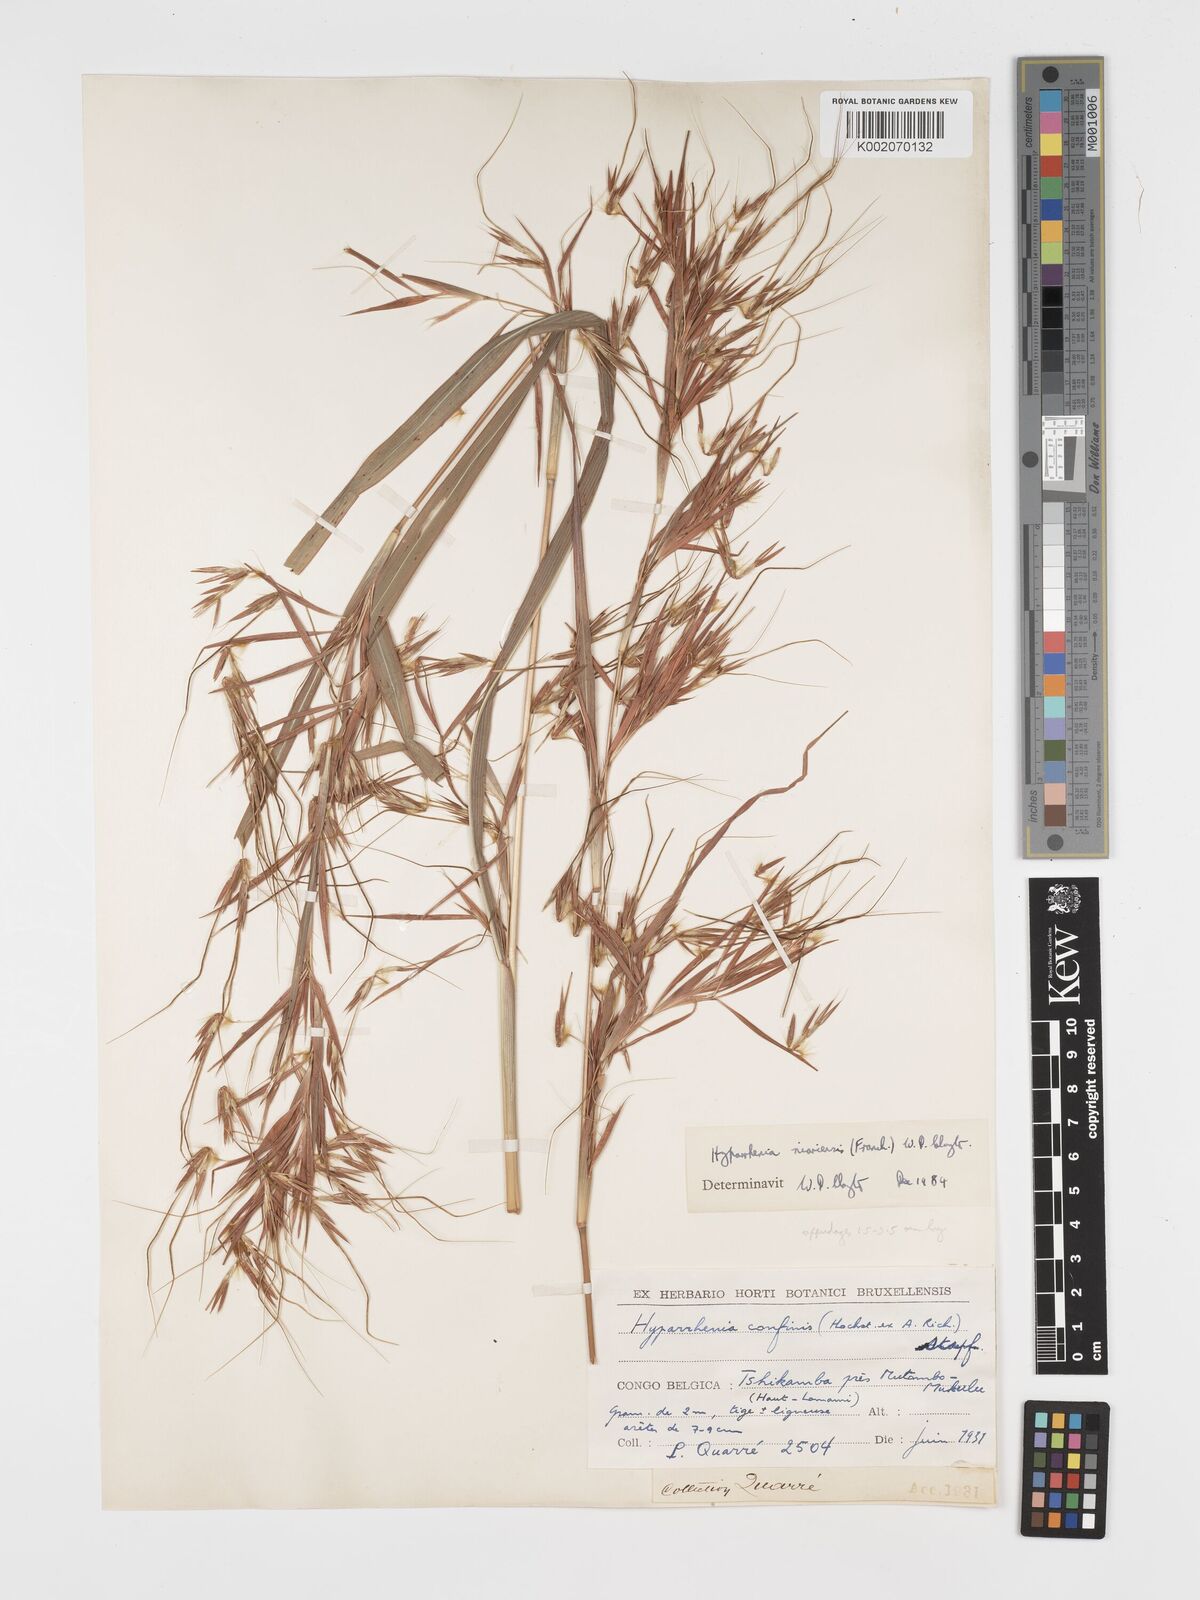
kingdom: Plantae
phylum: Tracheophyta
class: Liliopsida
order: Poales
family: Poaceae
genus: Hyparrhenia
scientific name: Hyparrhenia niariensis
